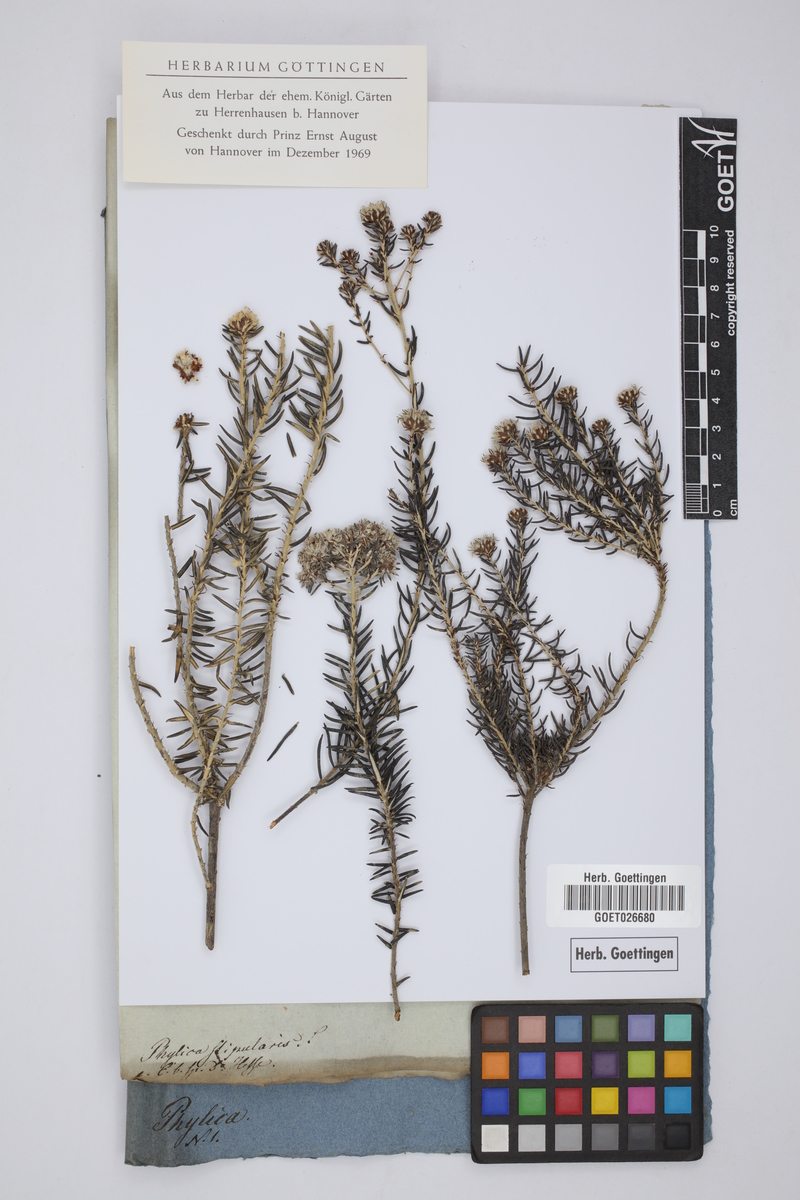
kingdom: Plantae
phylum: Tracheophyta
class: Magnoliopsida
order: Rosales
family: Rhamnaceae
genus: Trichocephalus
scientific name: Trichocephalus stipularis
